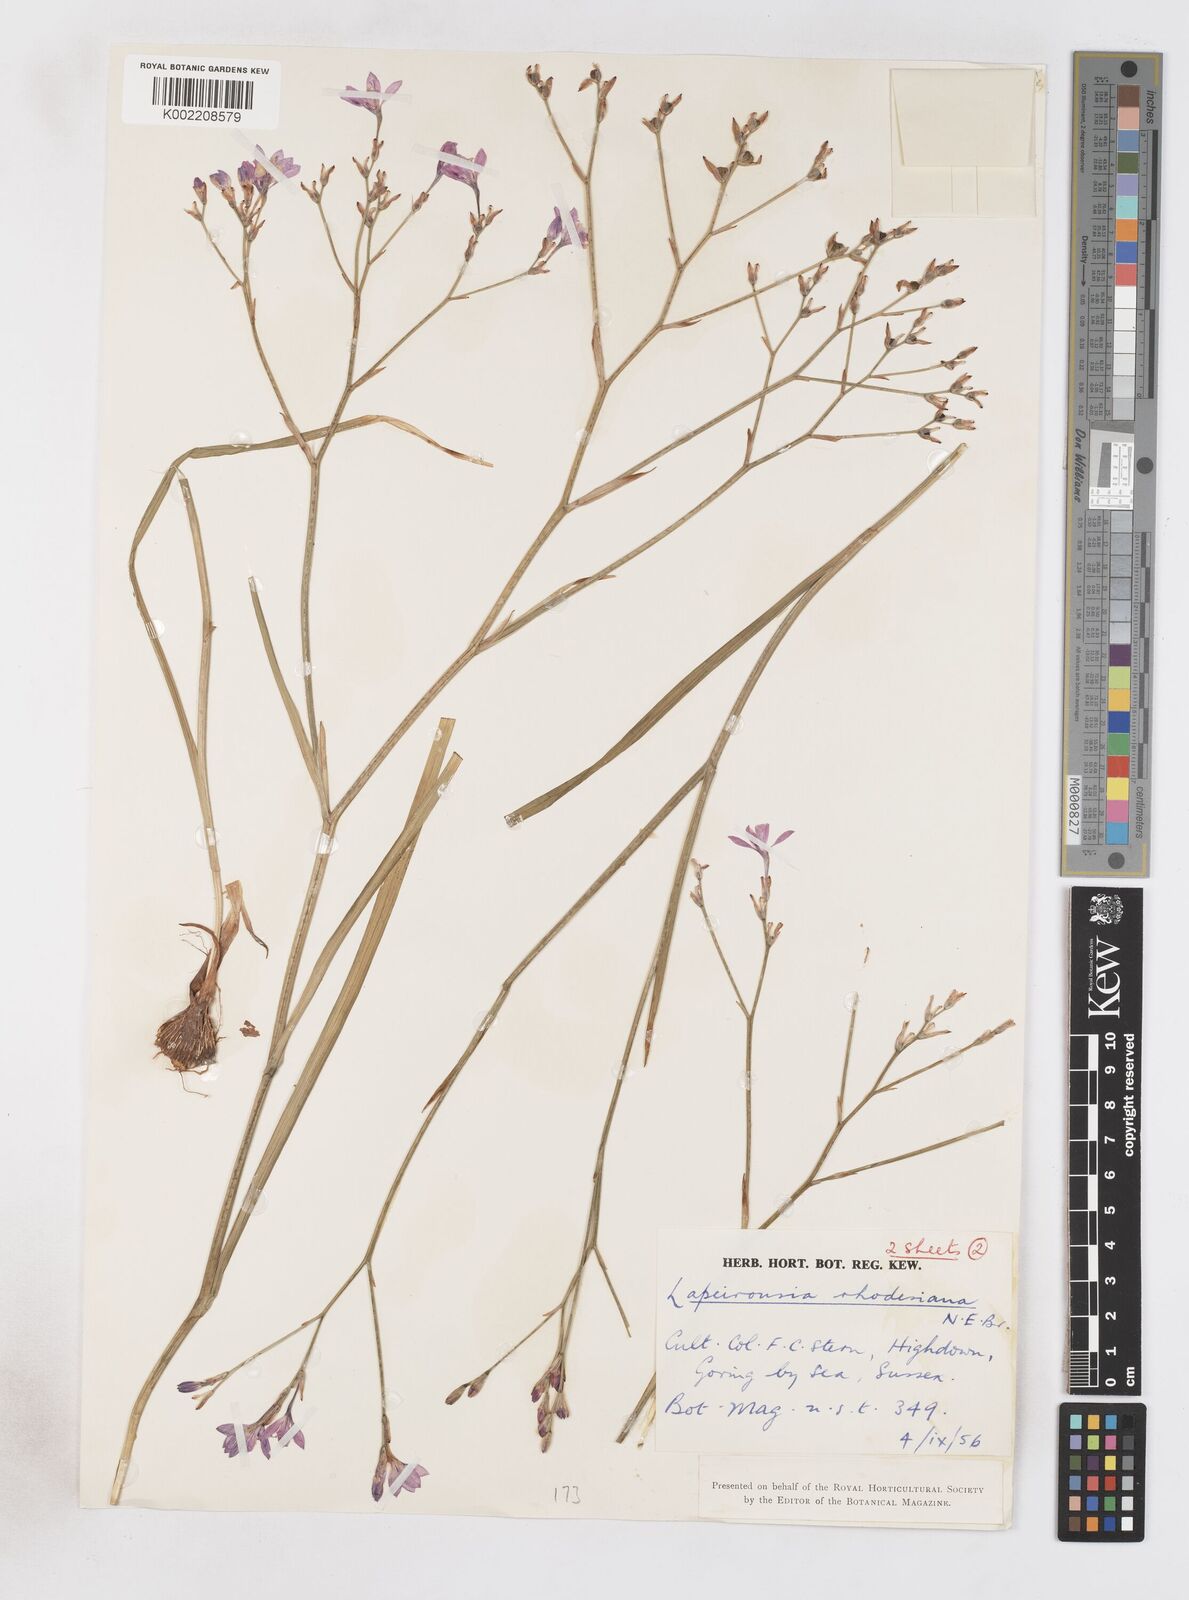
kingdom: Plantae
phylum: Tracheophyta
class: Liliopsida
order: Asparagales
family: Iridaceae
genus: Lapeirousia
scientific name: Lapeirousia
